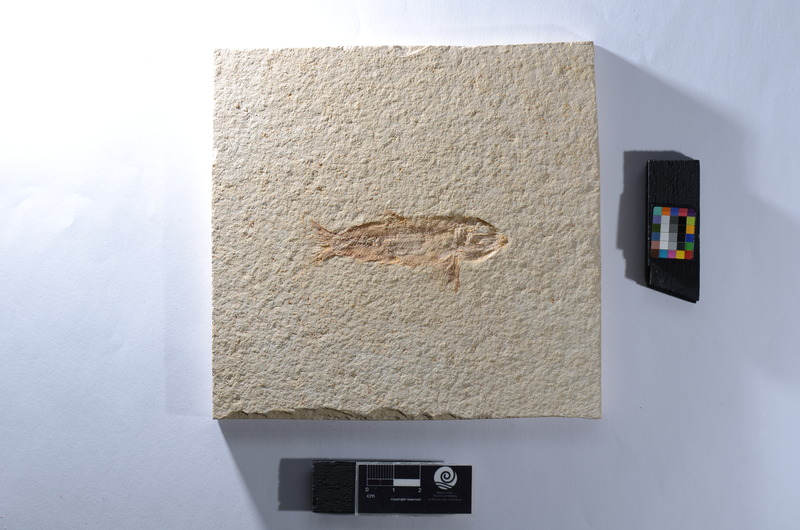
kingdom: Animalia
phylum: Chordata
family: Ophiopsiellidae
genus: Furo
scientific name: Furo
